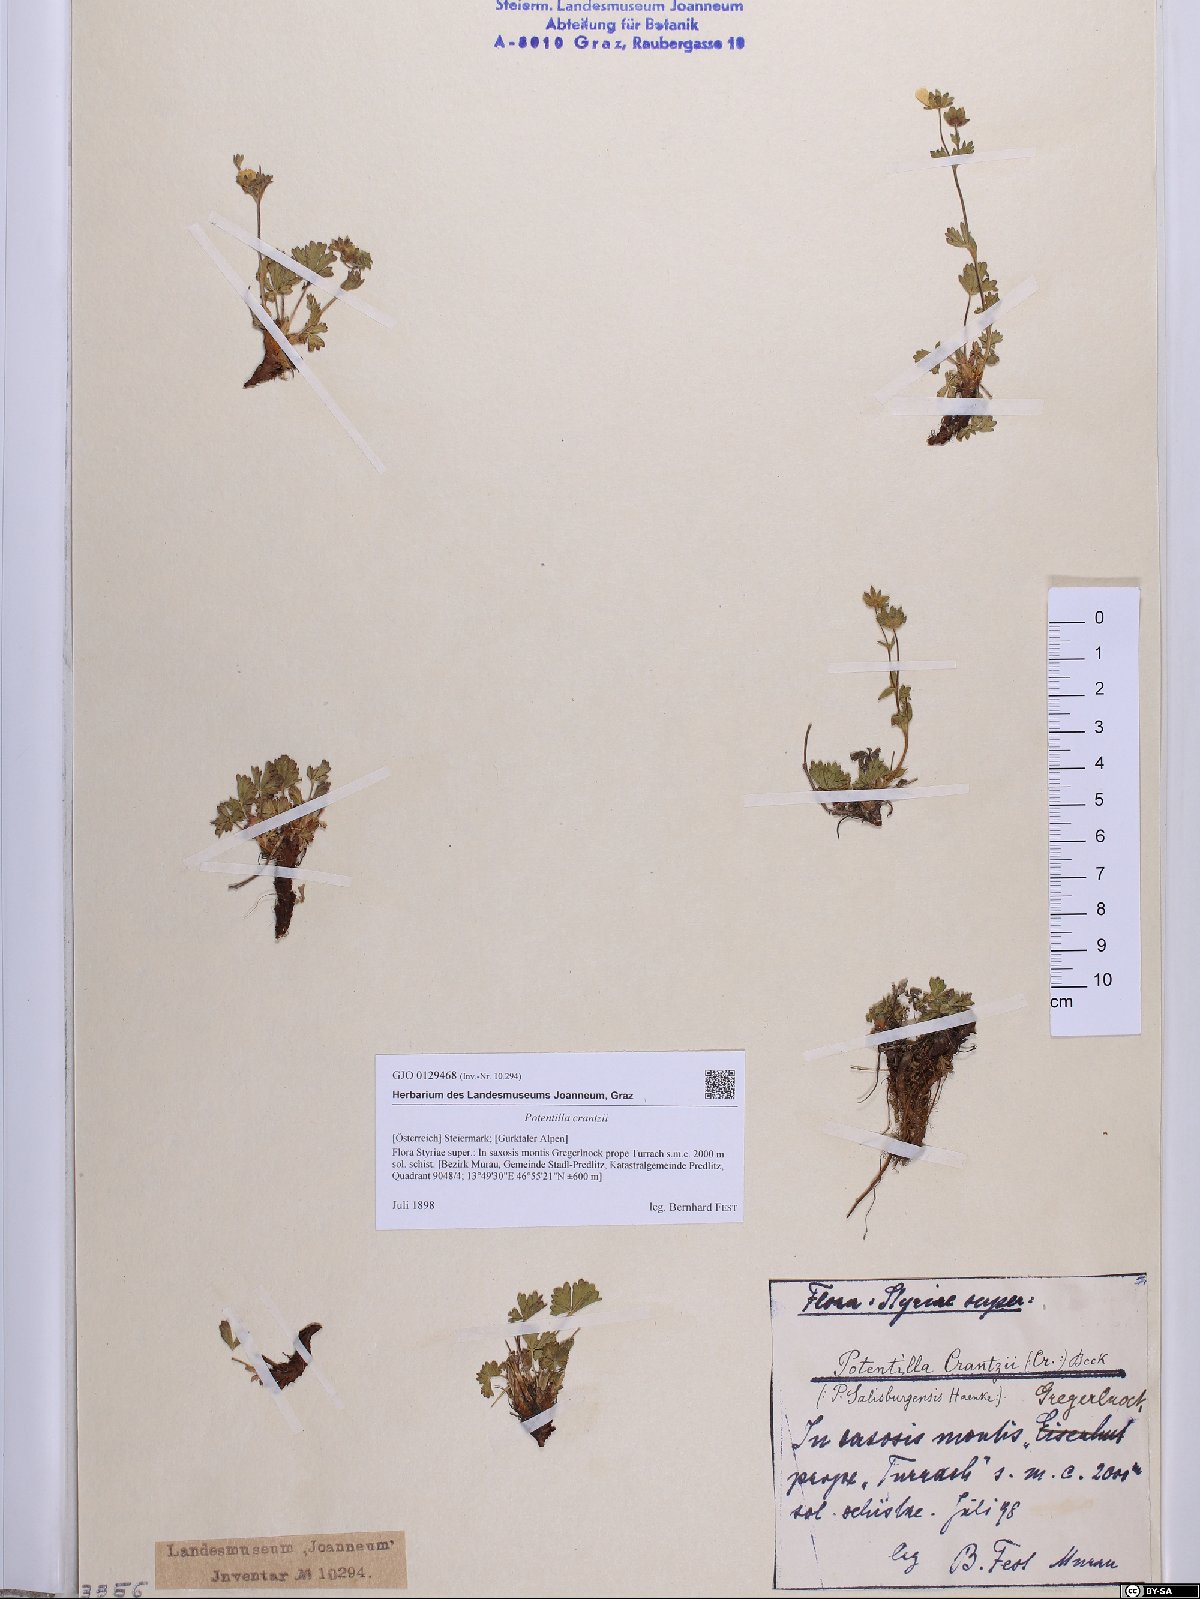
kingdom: Plantae
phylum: Tracheophyta
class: Magnoliopsida
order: Rosales
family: Rosaceae
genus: Potentilla
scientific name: Potentilla crantzii
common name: Alpine cinquefoil
